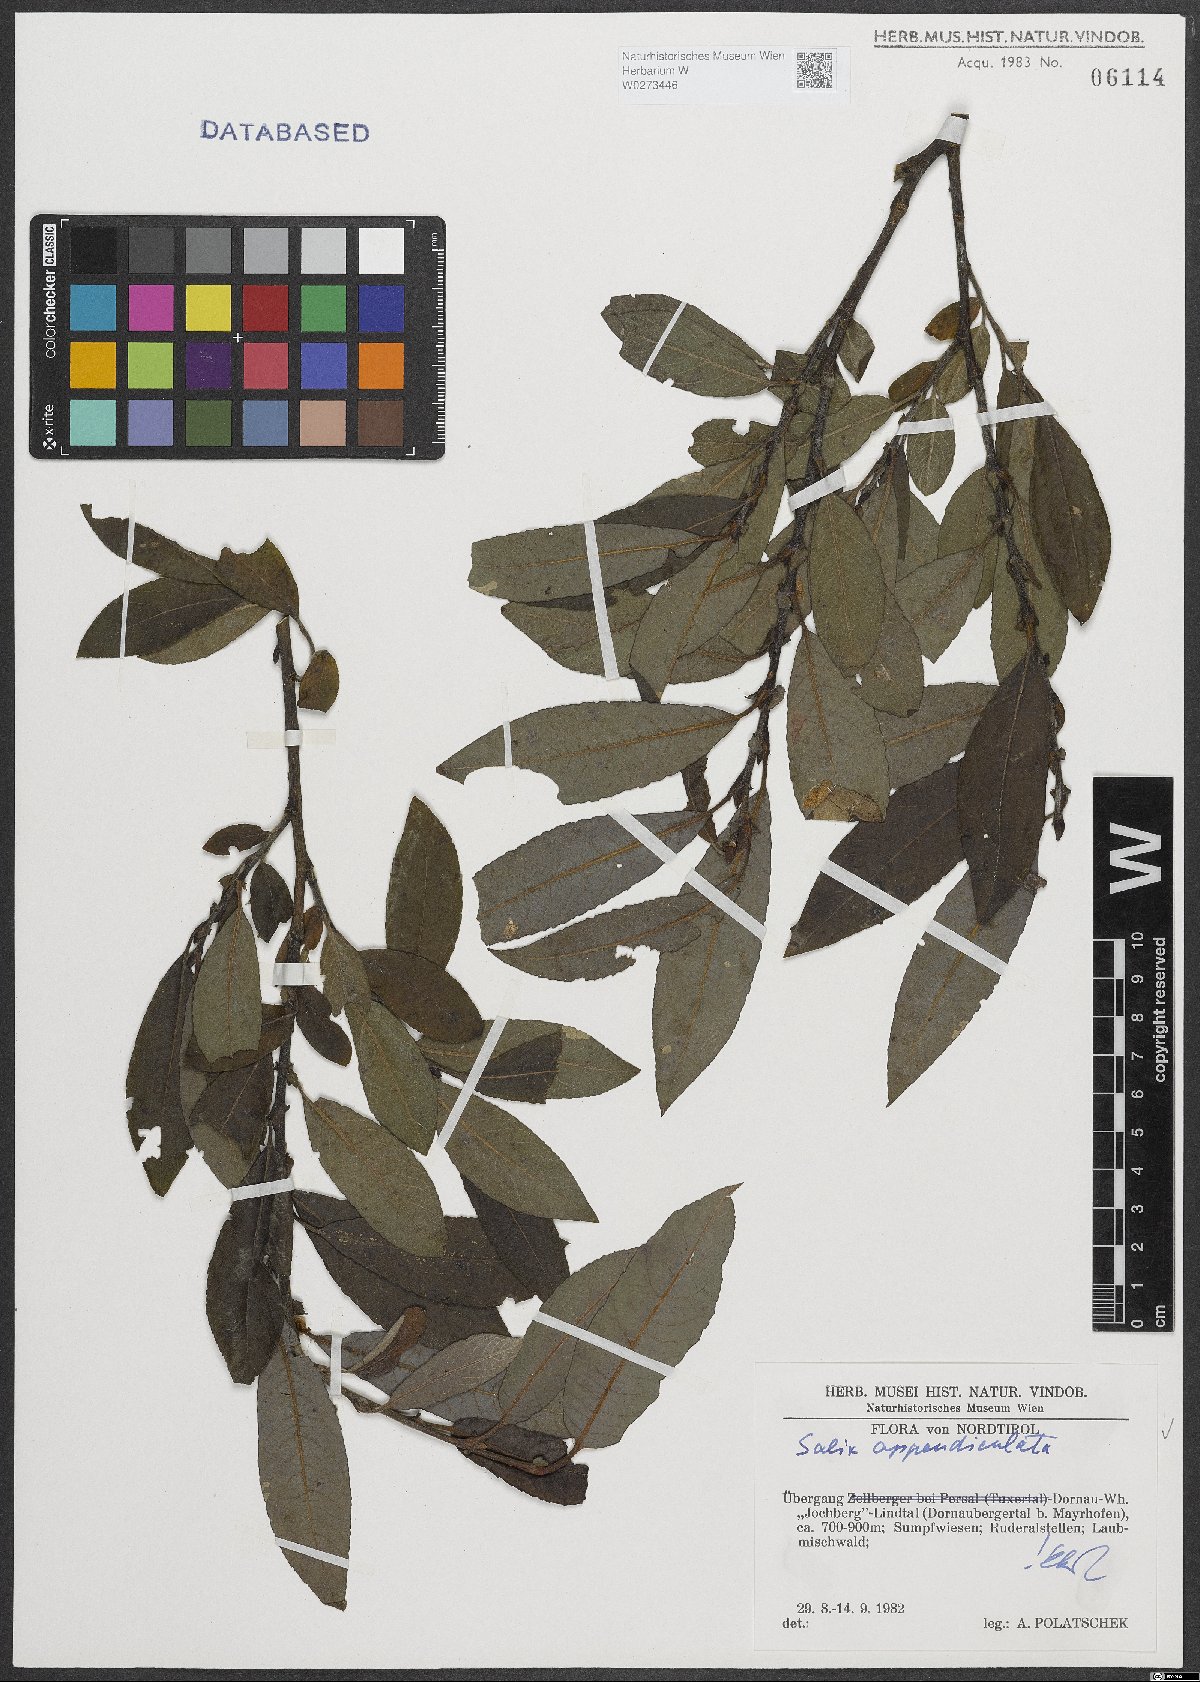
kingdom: Plantae
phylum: Tracheophyta
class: Magnoliopsida
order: Malpighiales
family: Salicaceae
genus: Salix
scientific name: Salix appendiculata
